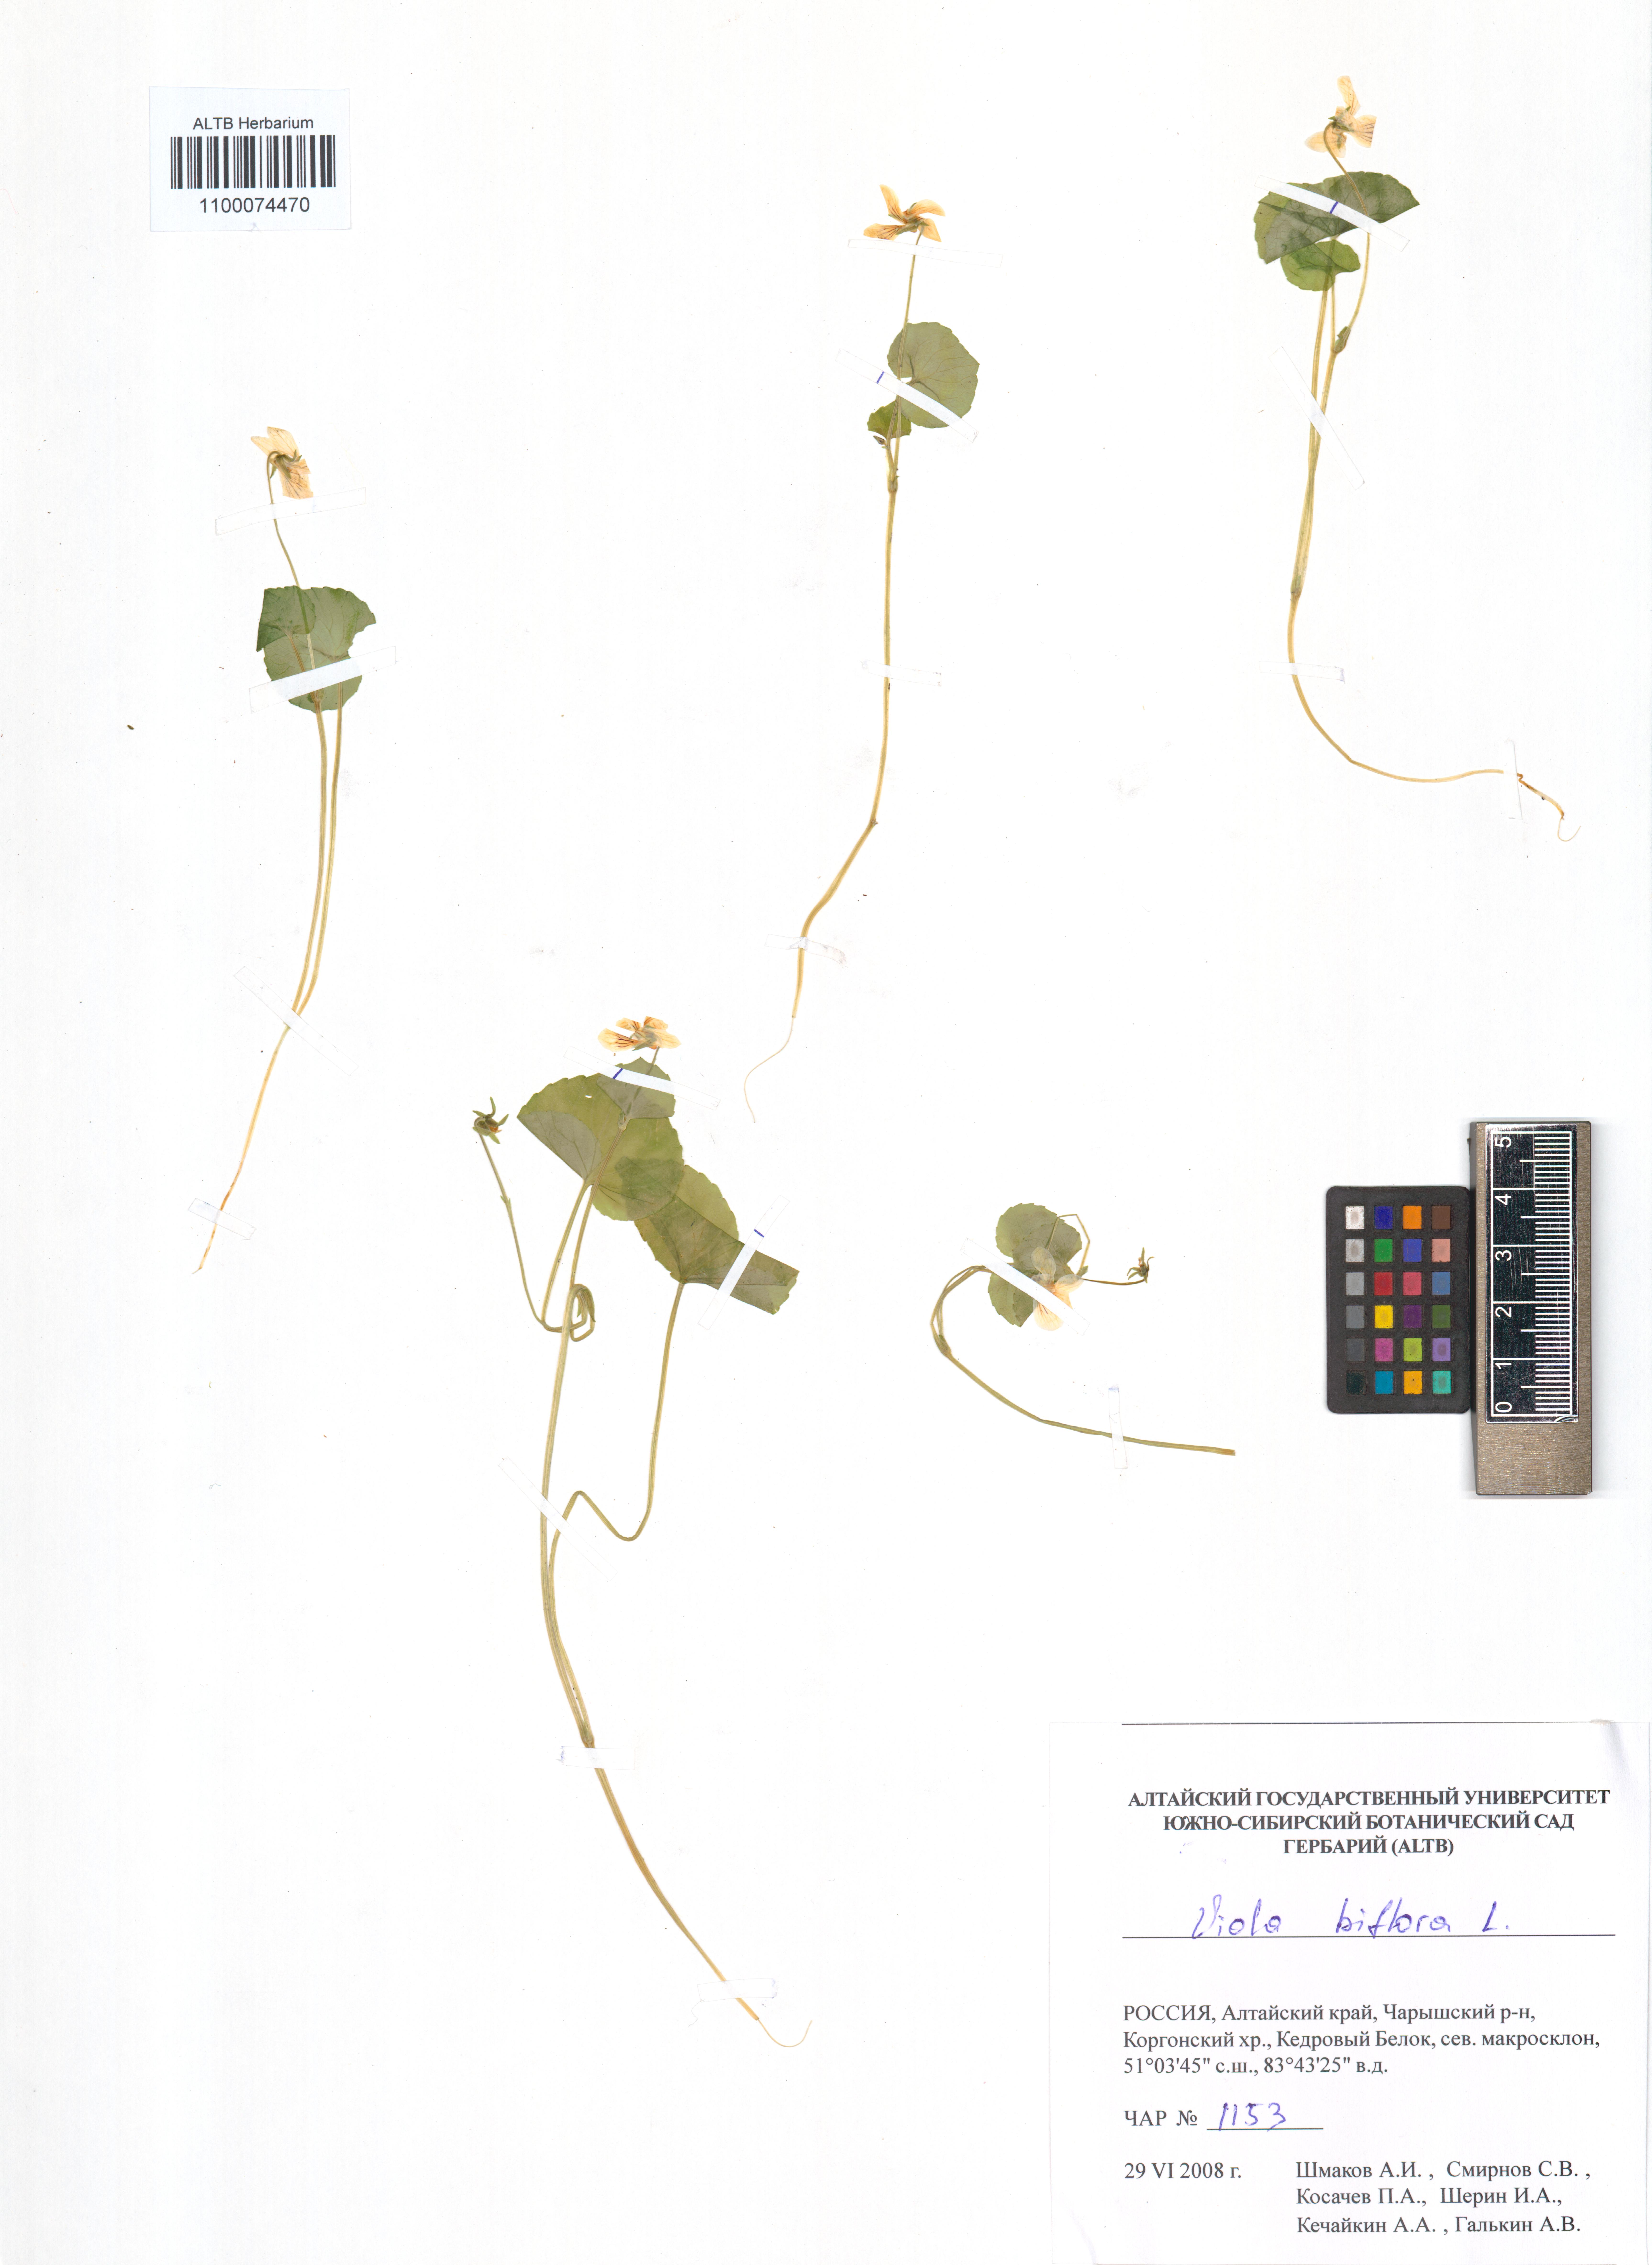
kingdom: Plantae
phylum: Tracheophyta
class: Magnoliopsida
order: Malpighiales
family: Violaceae
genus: Viola
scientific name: Viola biflora
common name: Alpine yellow violet
